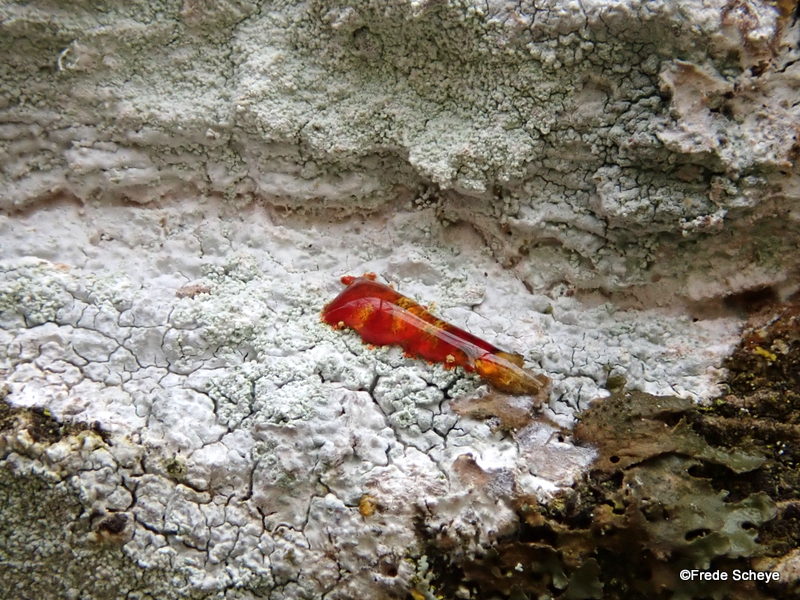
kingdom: Fungi
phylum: Ascomycota
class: Lecanoromycetes
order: Ostropales
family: Phlyctidaceae
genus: Phlyctis
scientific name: Phlyctis argena
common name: almindelig sølvlav
